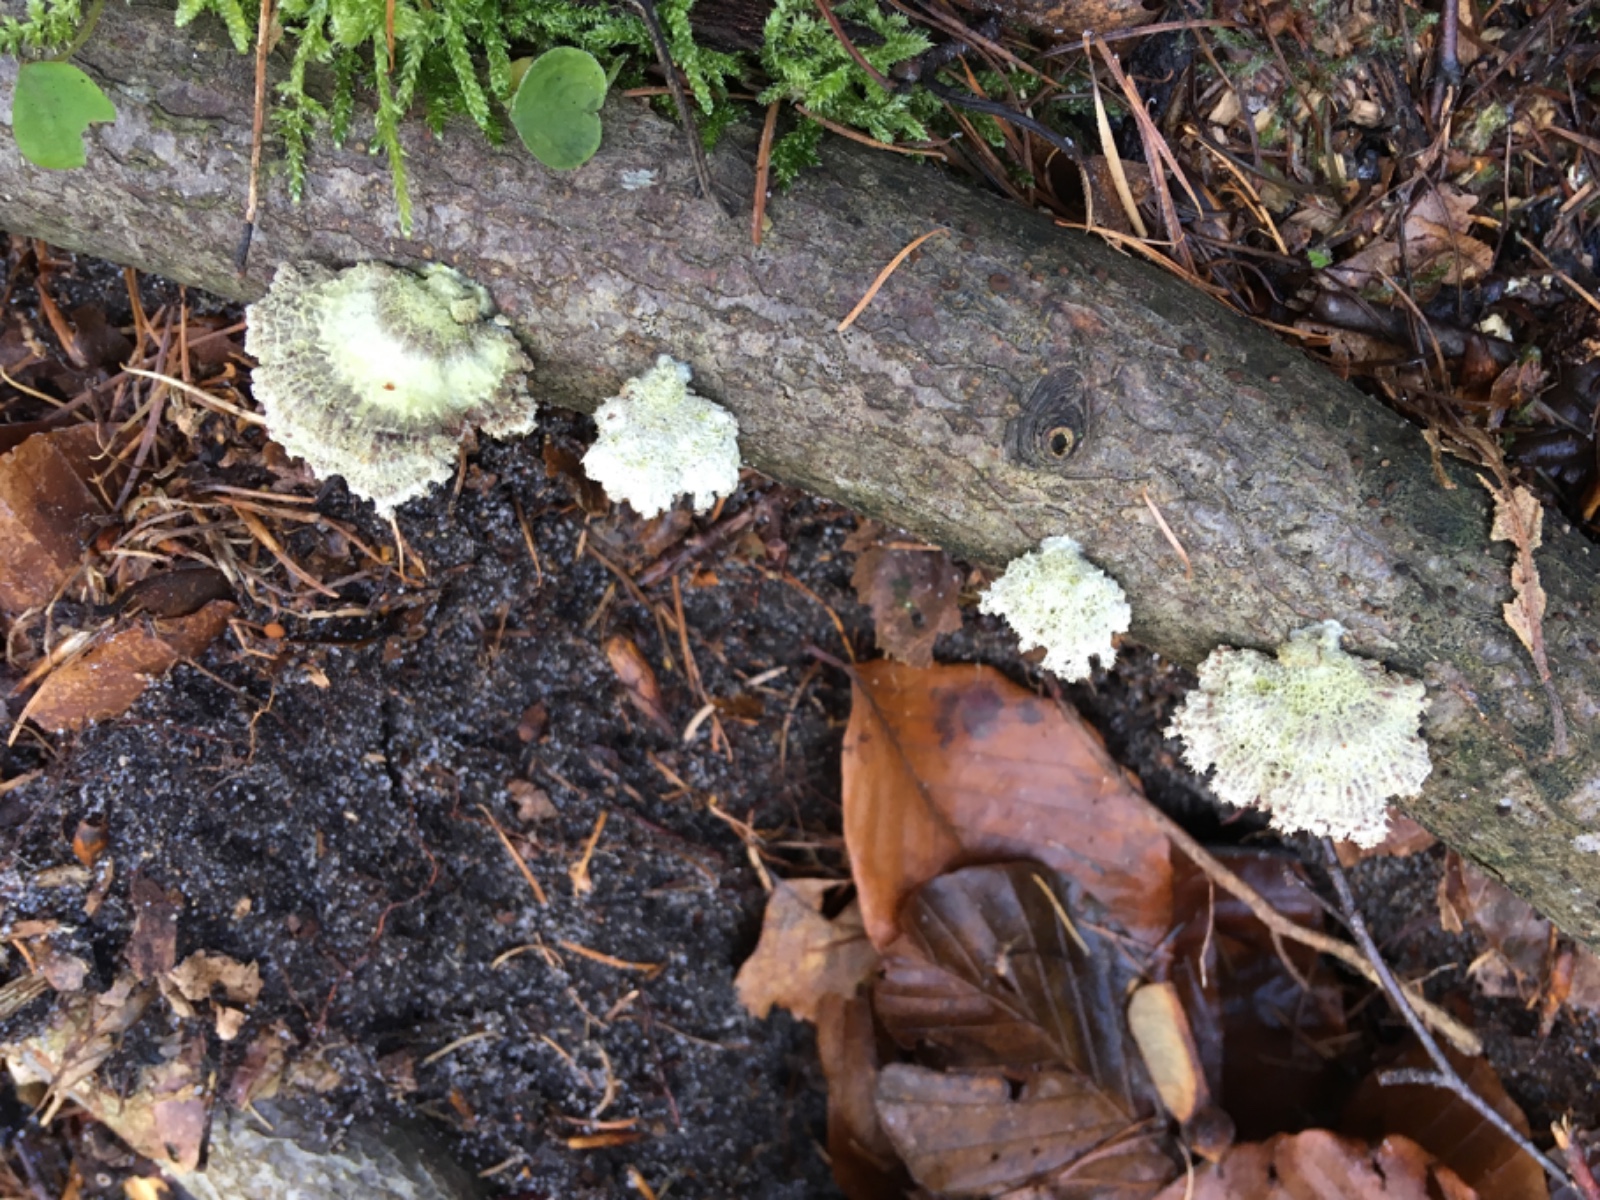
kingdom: Fungi
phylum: Basidiomycota
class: Agaricomycetes
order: Agaricales
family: Schizophyllaceae
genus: Schizophyllum
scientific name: Schizophyllum commune
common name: kløvblad
